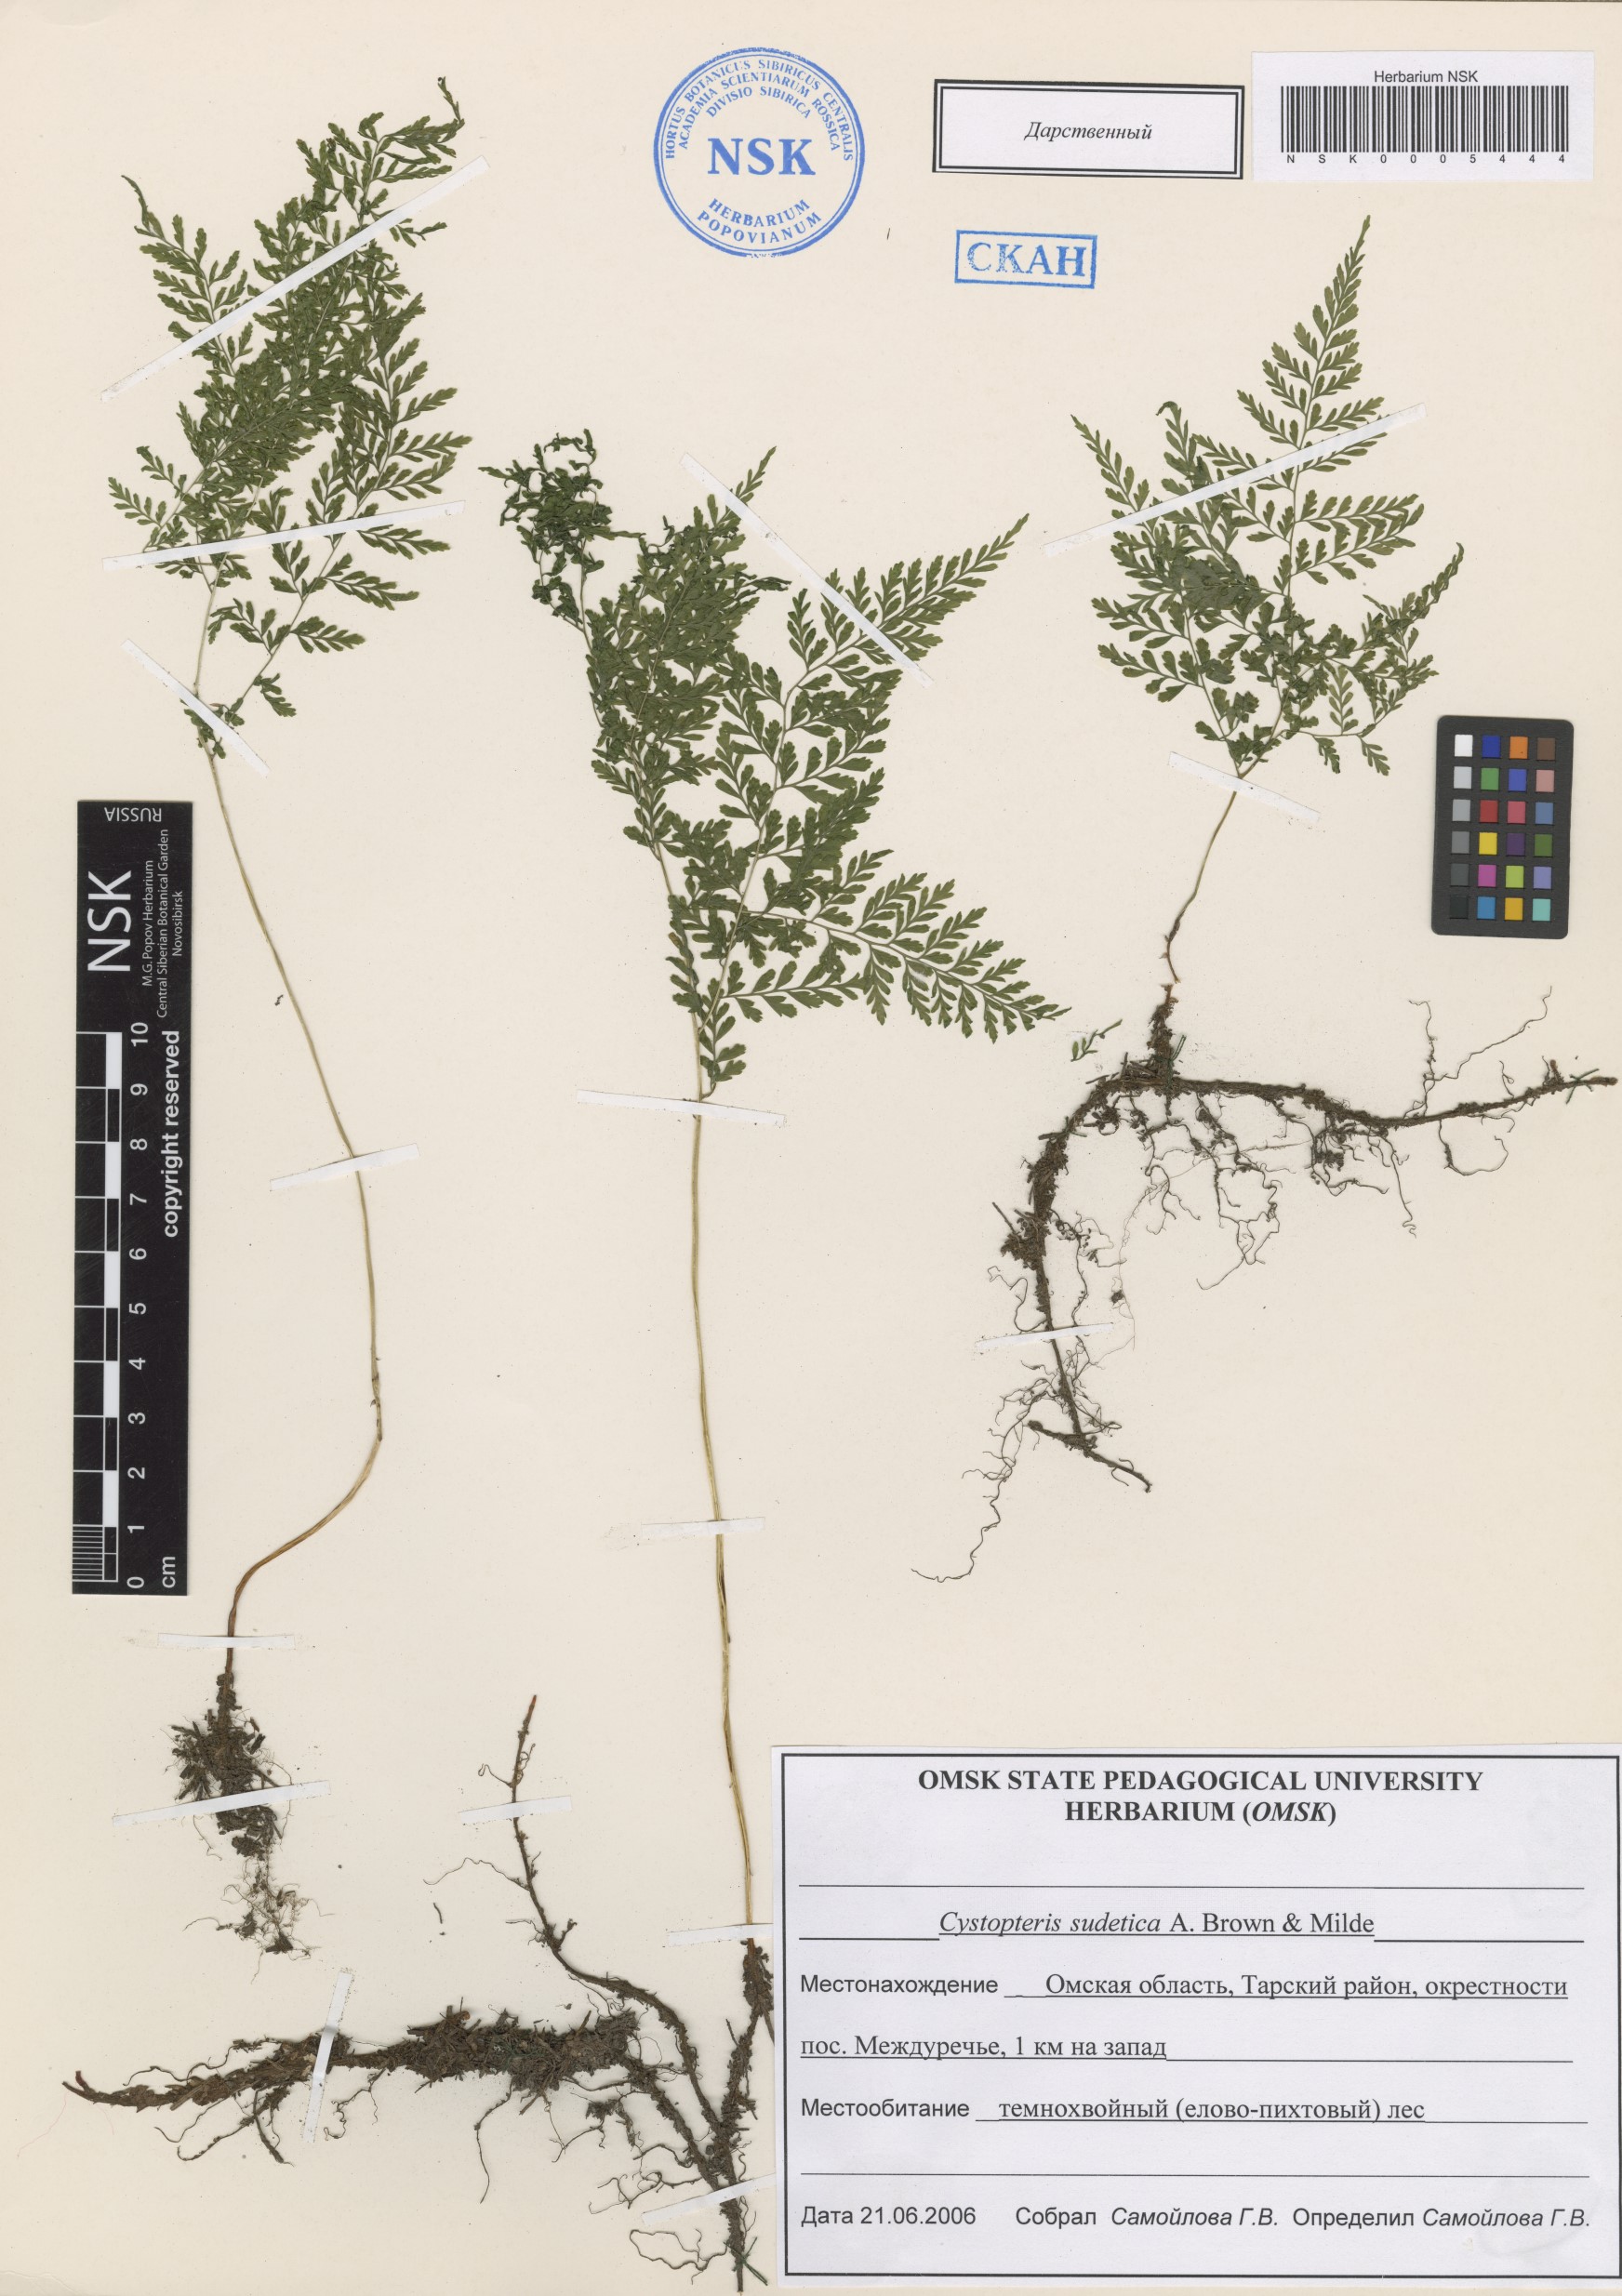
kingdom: Plantae
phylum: Tracheophyta
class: Polypodiopsida
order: Polypodiales
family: Cystopteridaceae
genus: Cystopteris
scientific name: Cystopteris sudetica
